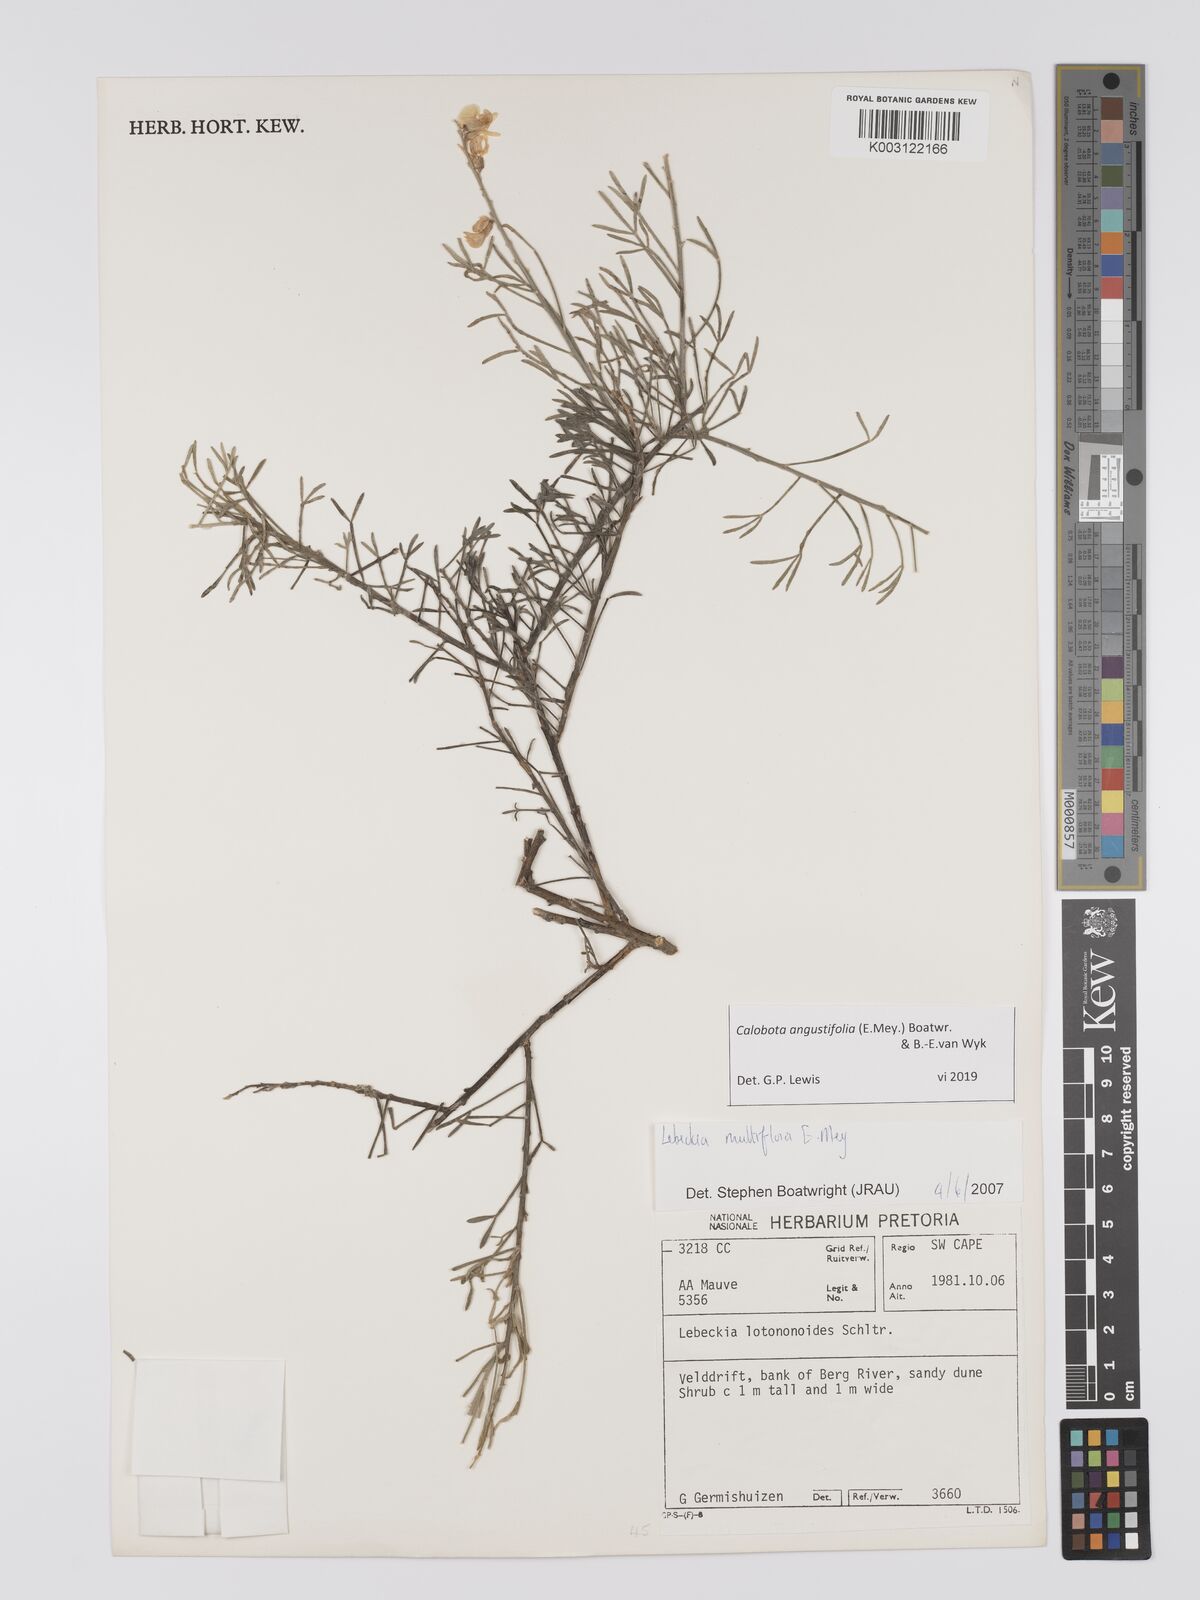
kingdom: Plantae
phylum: Tracheophyta
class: Magnoliopsida
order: Fabales
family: Fabaceae
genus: Calobota
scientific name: Calobota angustifolia
